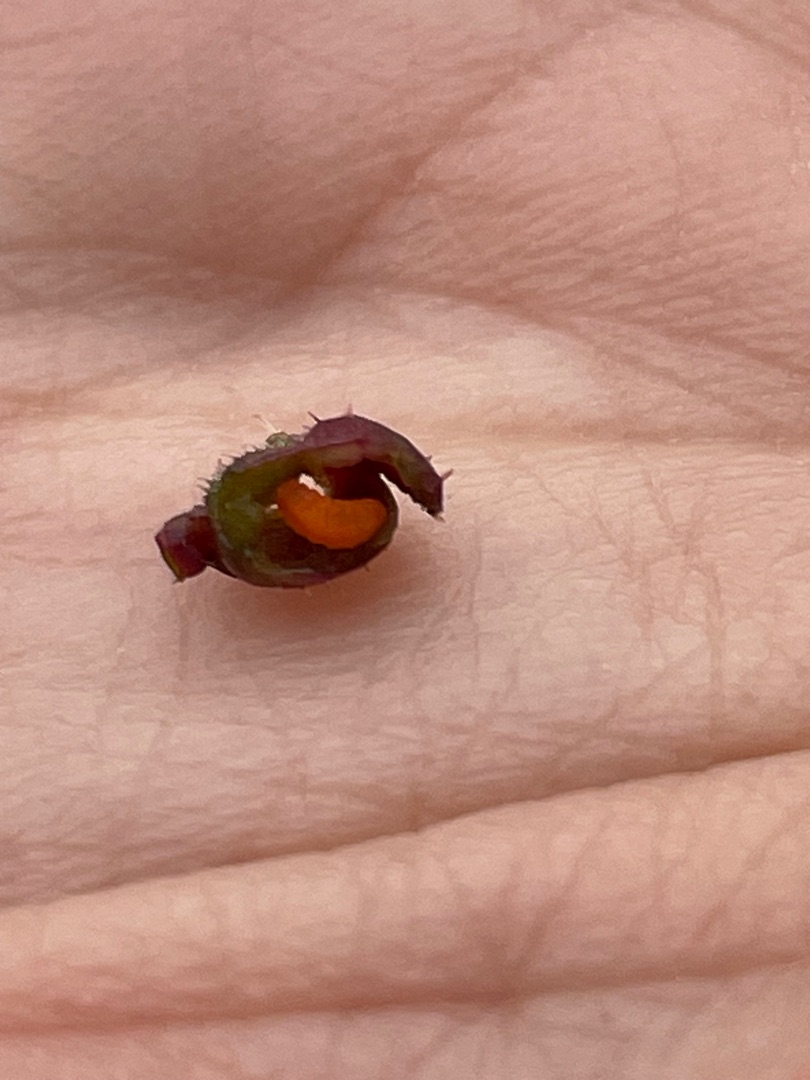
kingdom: Animalia
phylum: Arthropoda
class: Insecta
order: Diptera
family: Cecidomyiidae
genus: Kiefferia
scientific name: Kiefferia pericarpiicola
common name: Gulerodsgalmyg
